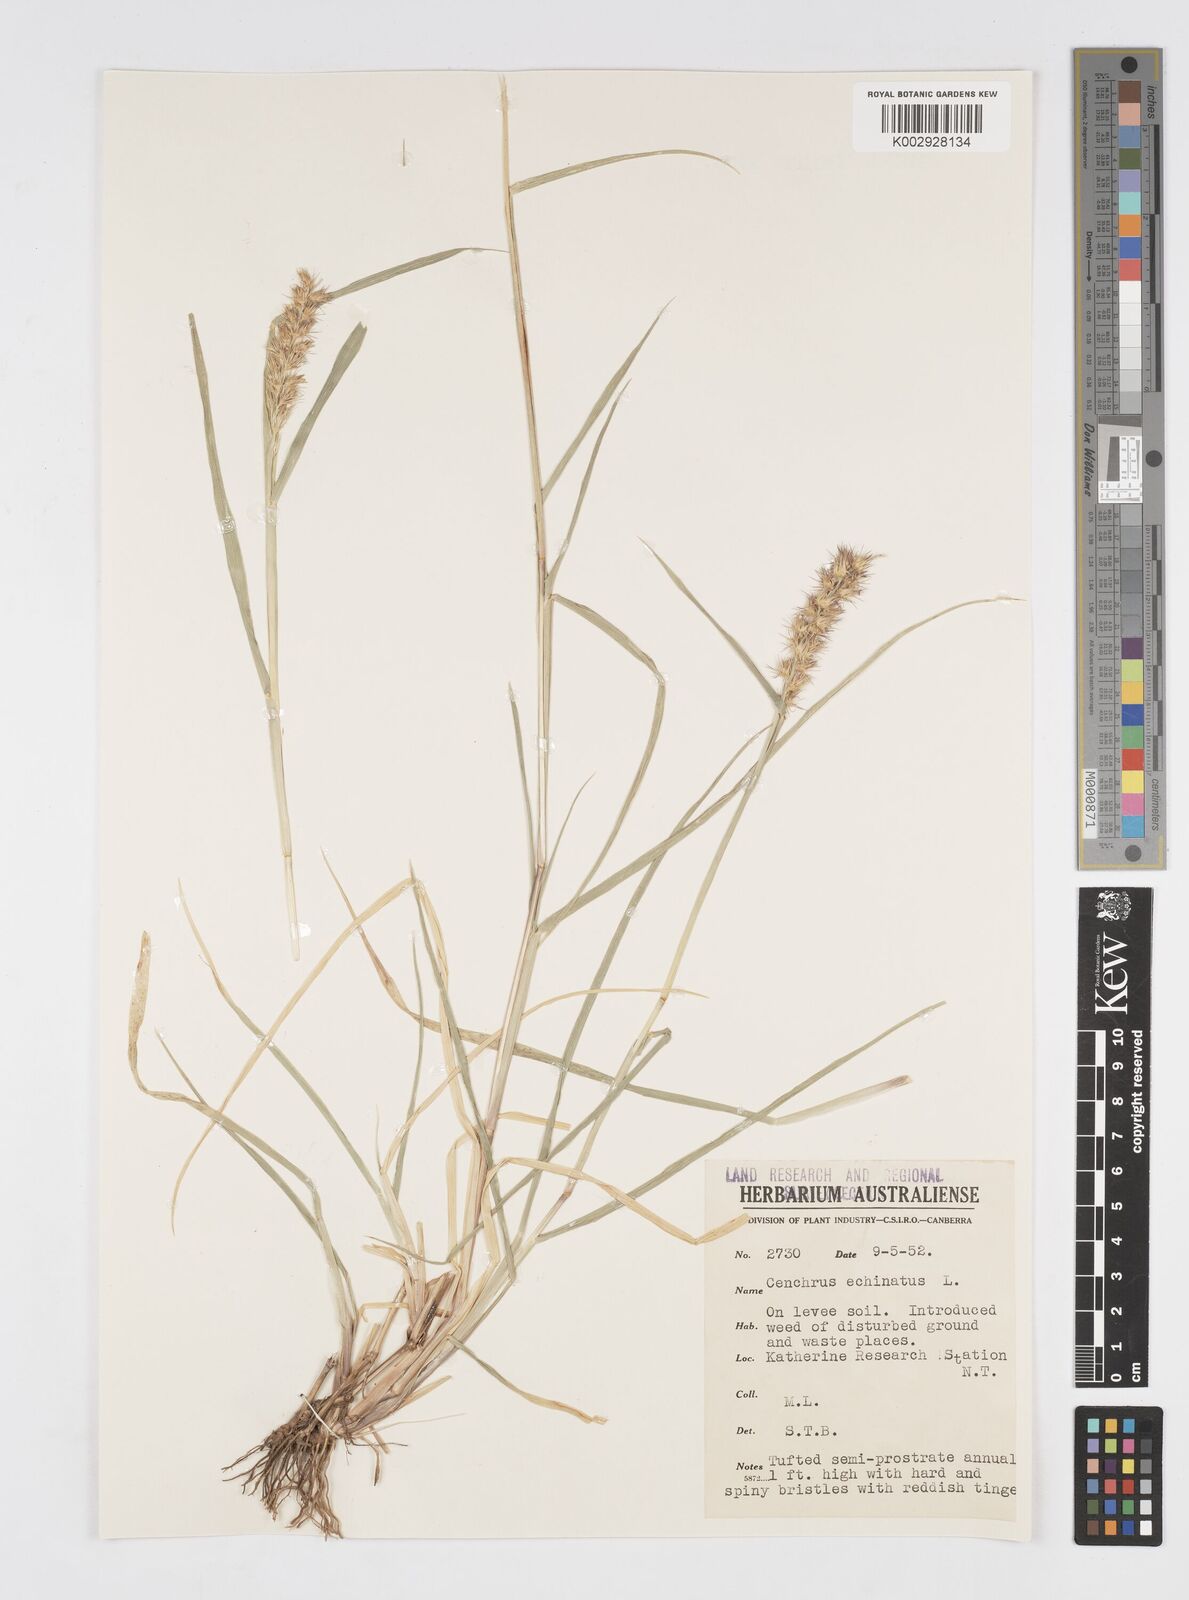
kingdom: Plantae
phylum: Tracheophyta
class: Liliopsida
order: Poales
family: Poaceae
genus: Cenchrus
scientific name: Cenchrus echinatus
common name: Southern sandbur
